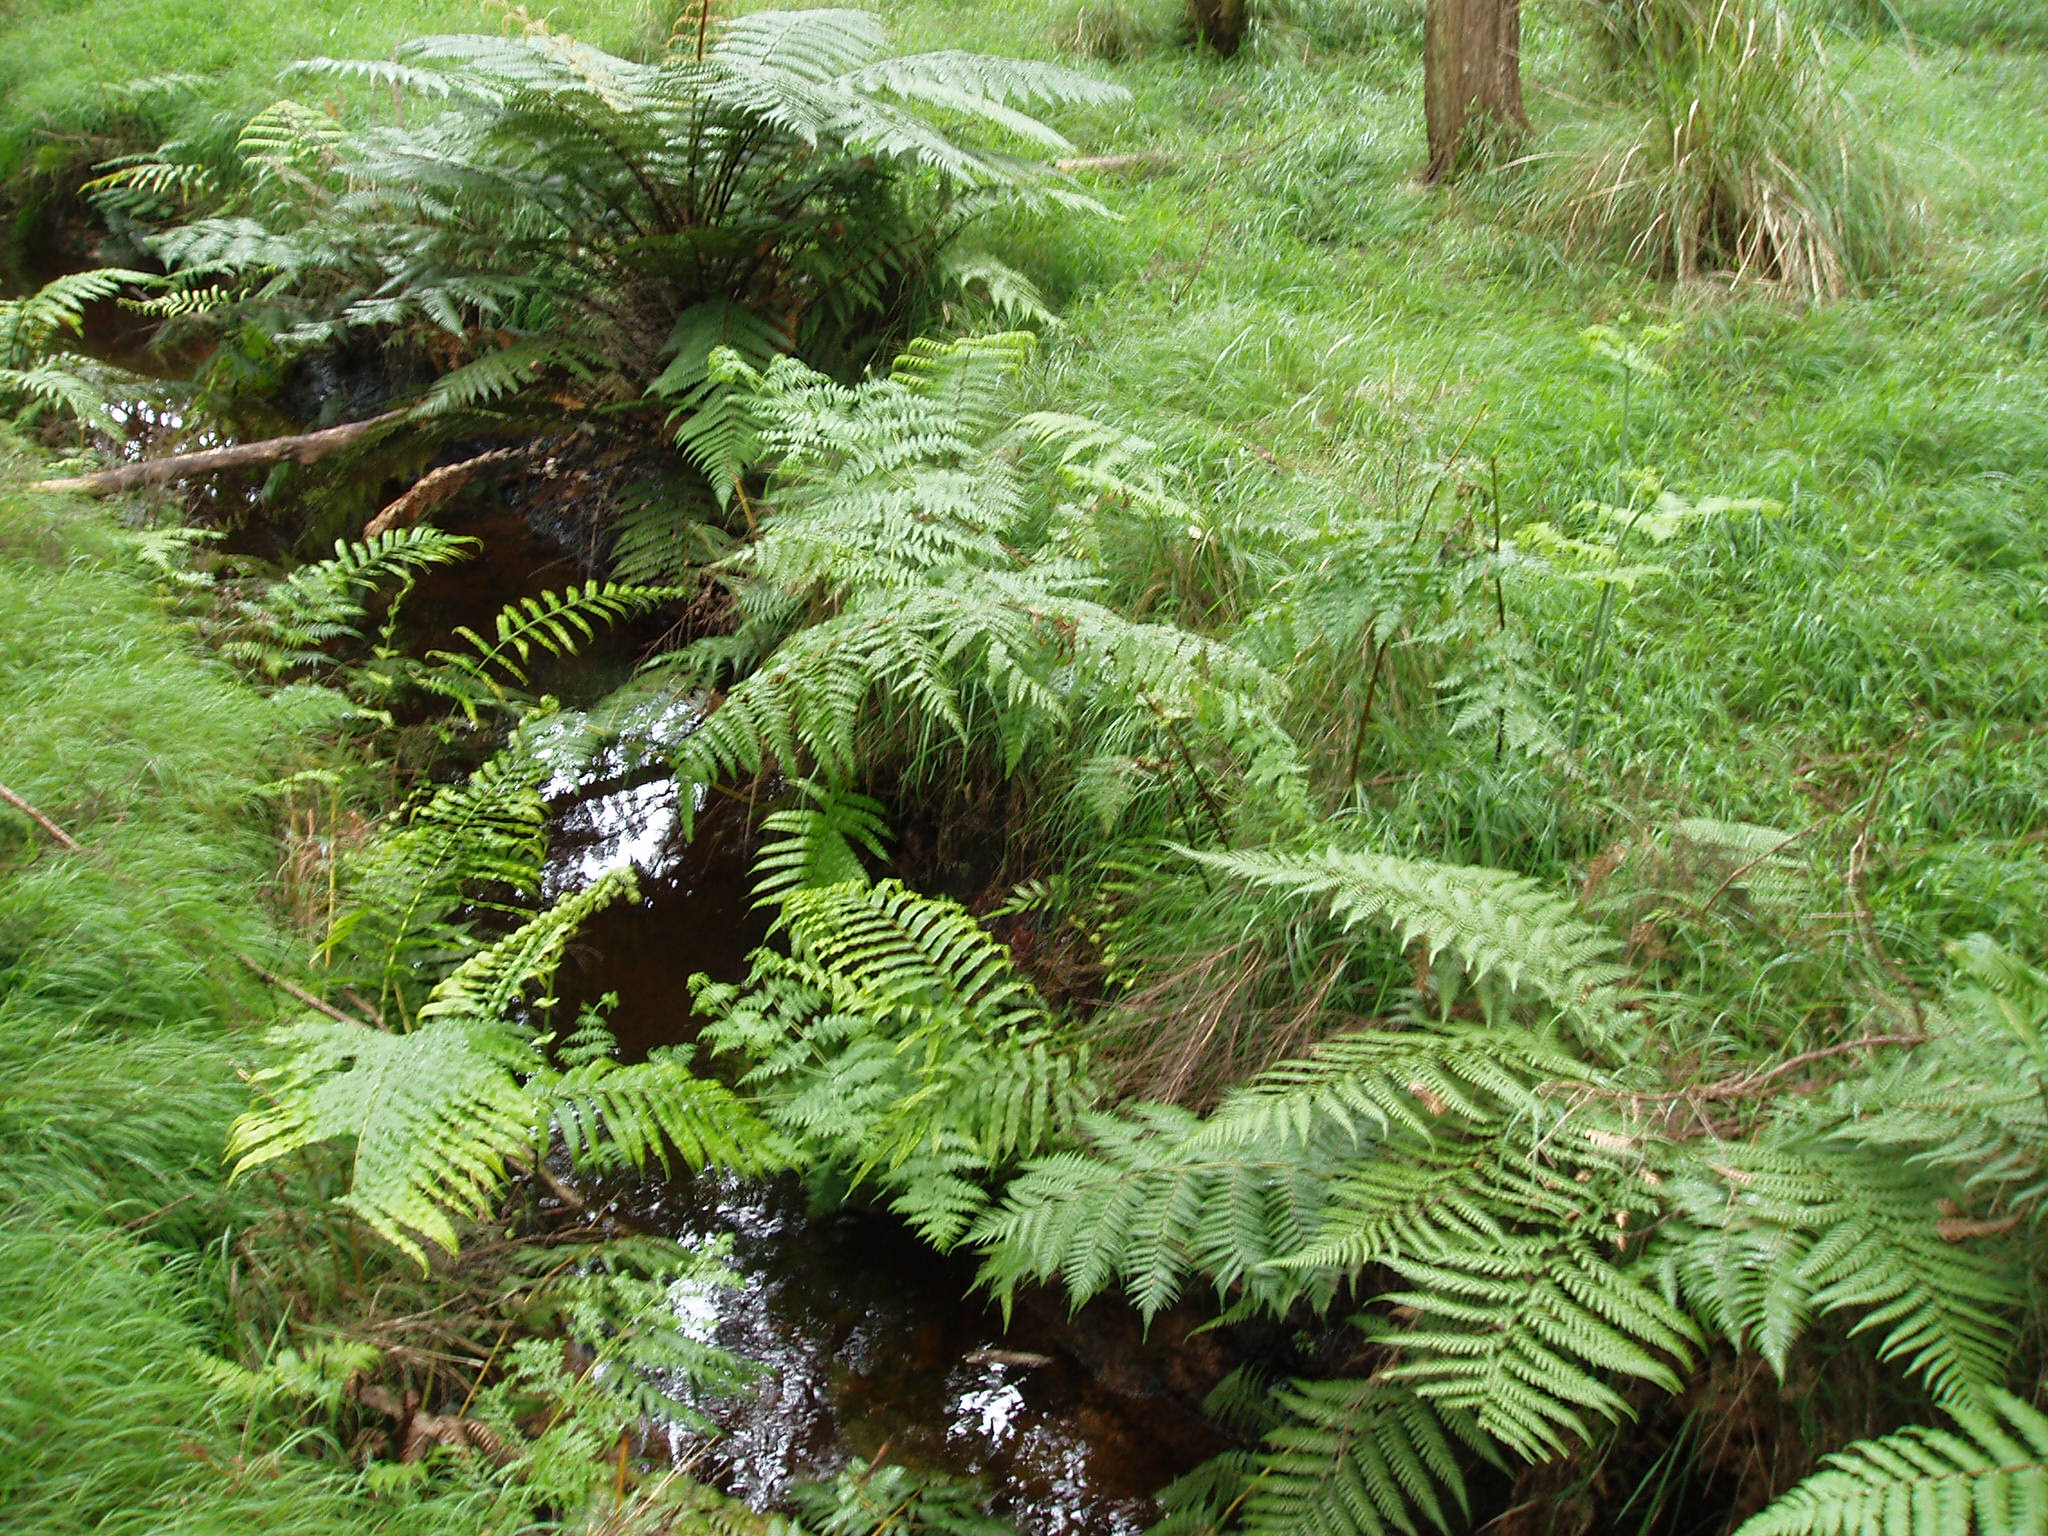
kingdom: Plantae
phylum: Tracheophyta
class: Polypodiopsida
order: Polypodiales
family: Dennstaedtiaceae
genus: Histiopteris
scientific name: Histiopteris incisa
